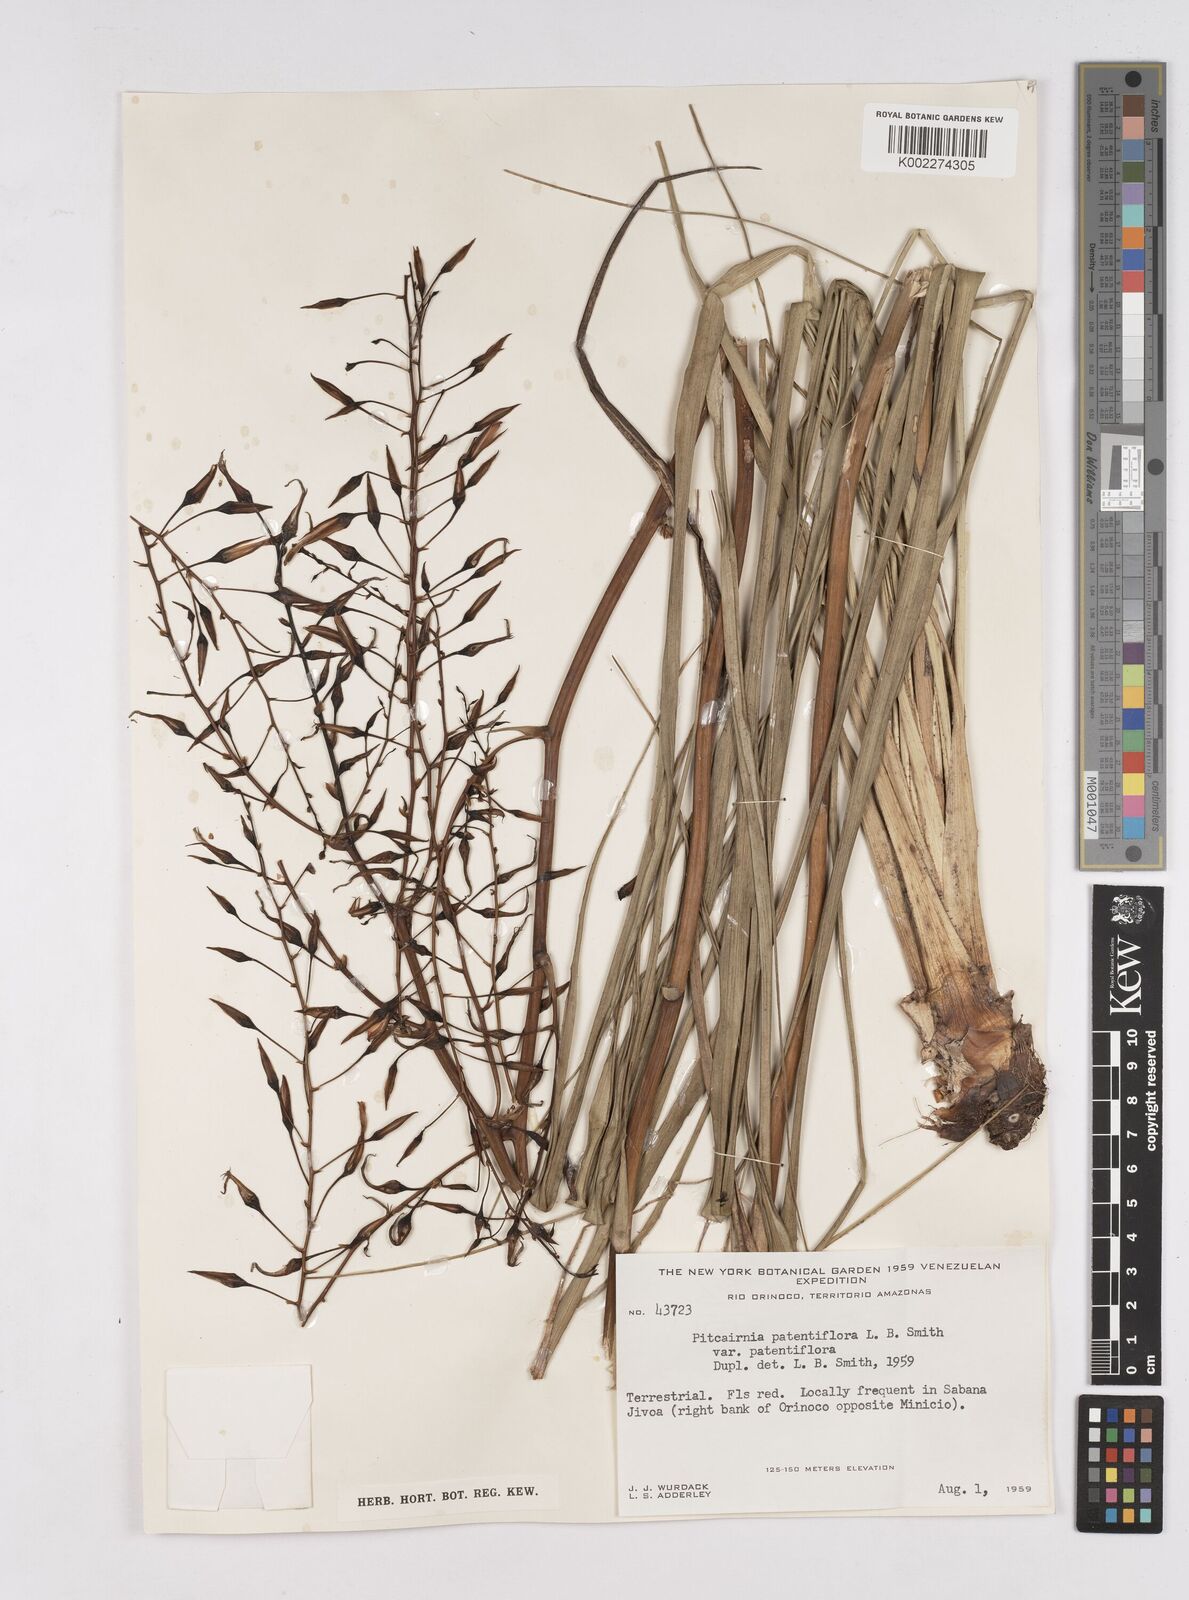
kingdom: Plantae
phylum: Tracheophyta
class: Liliopsida
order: Poales
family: Bromeliaceae
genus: Pitcairnia
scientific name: Pitcairnia patentiflora
